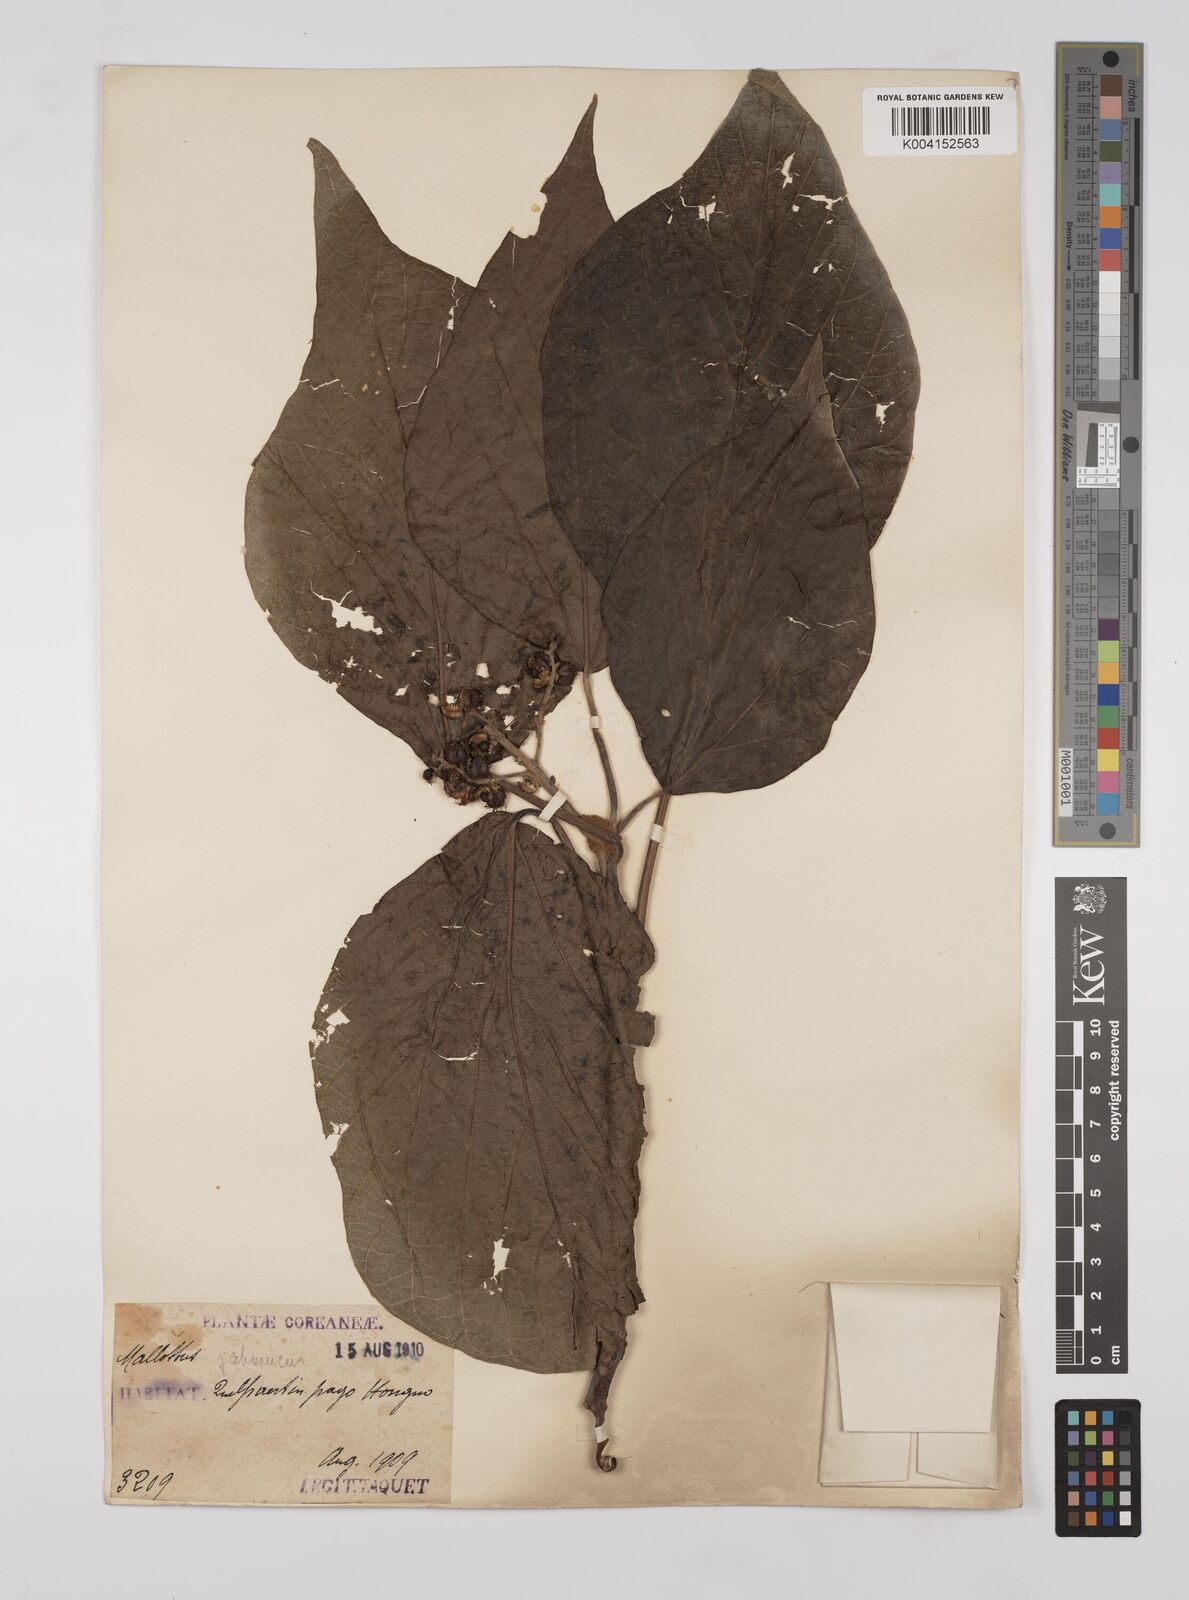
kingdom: Plantae
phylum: Tracheophyta
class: Magnoliopsida
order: Malpighiales
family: Euphorbiaceae
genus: Mallotus
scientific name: Mallotus japonicus
